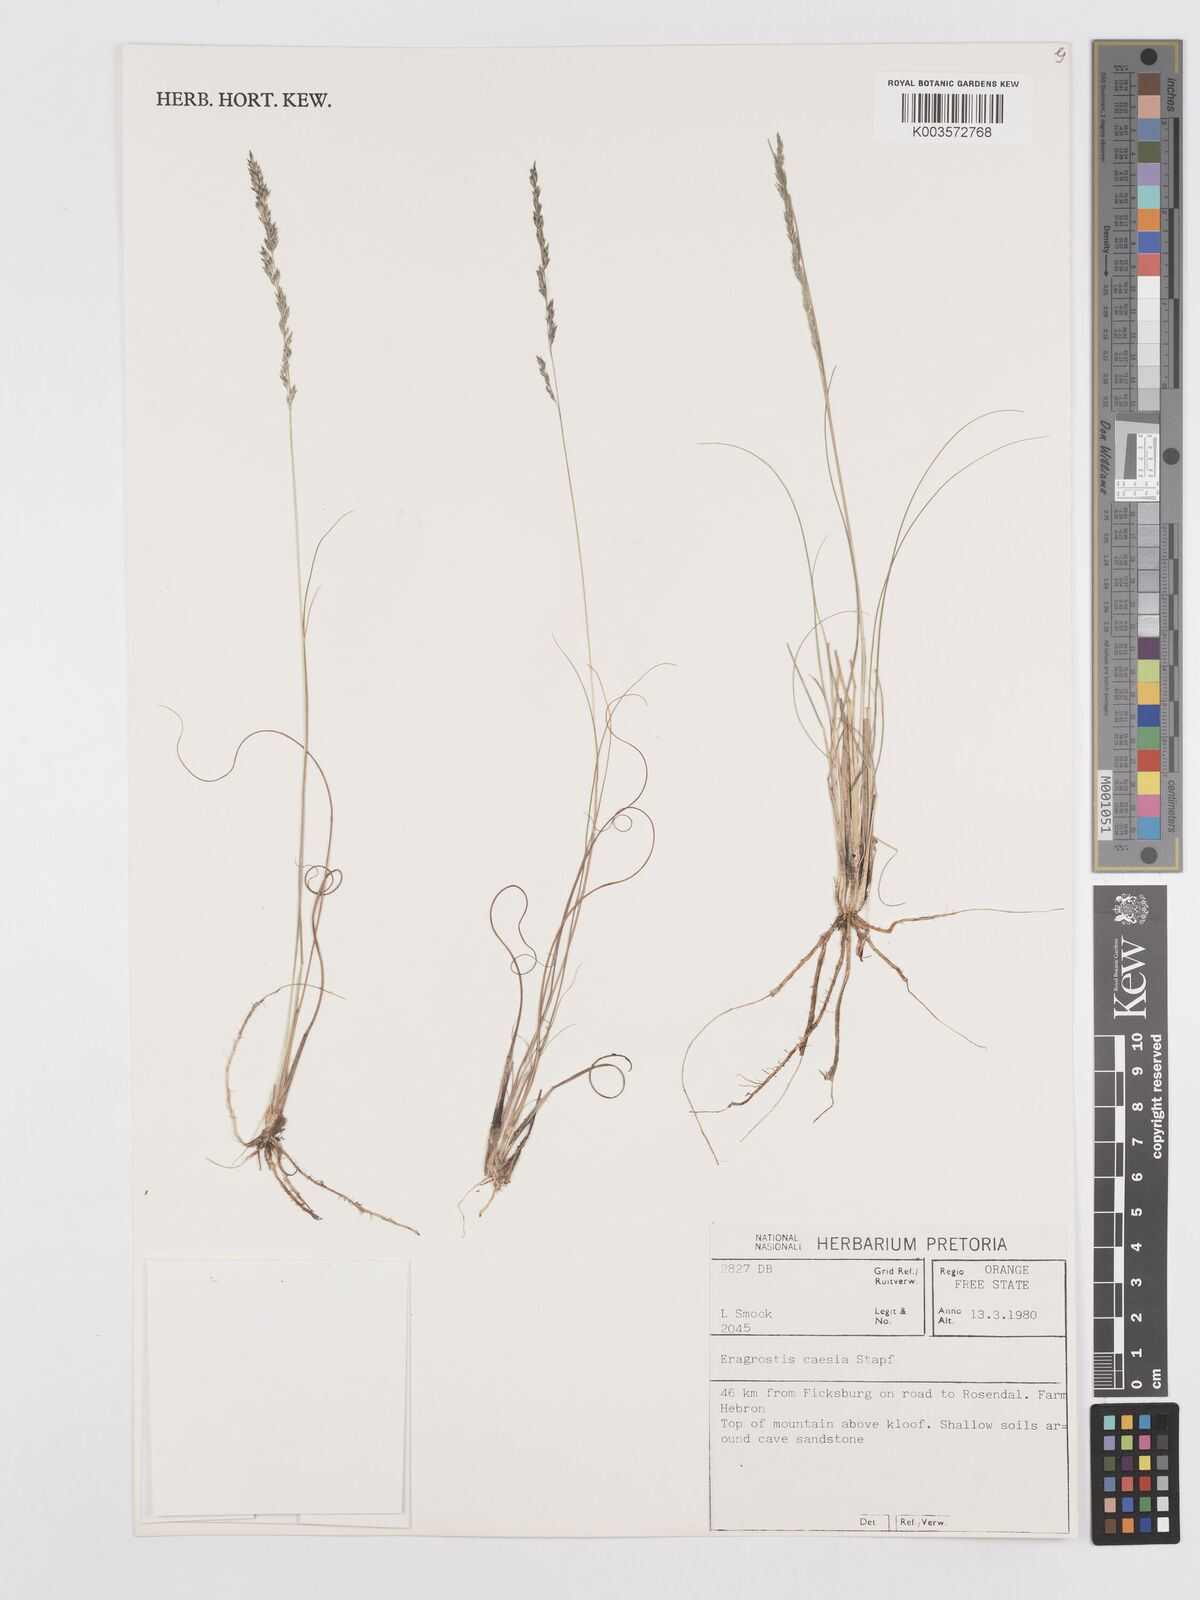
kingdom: Plantae
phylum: Tracheophyta
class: Liliopsida
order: Poales
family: Poaceae
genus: Eragrostis
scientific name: Eragrostis caesia
